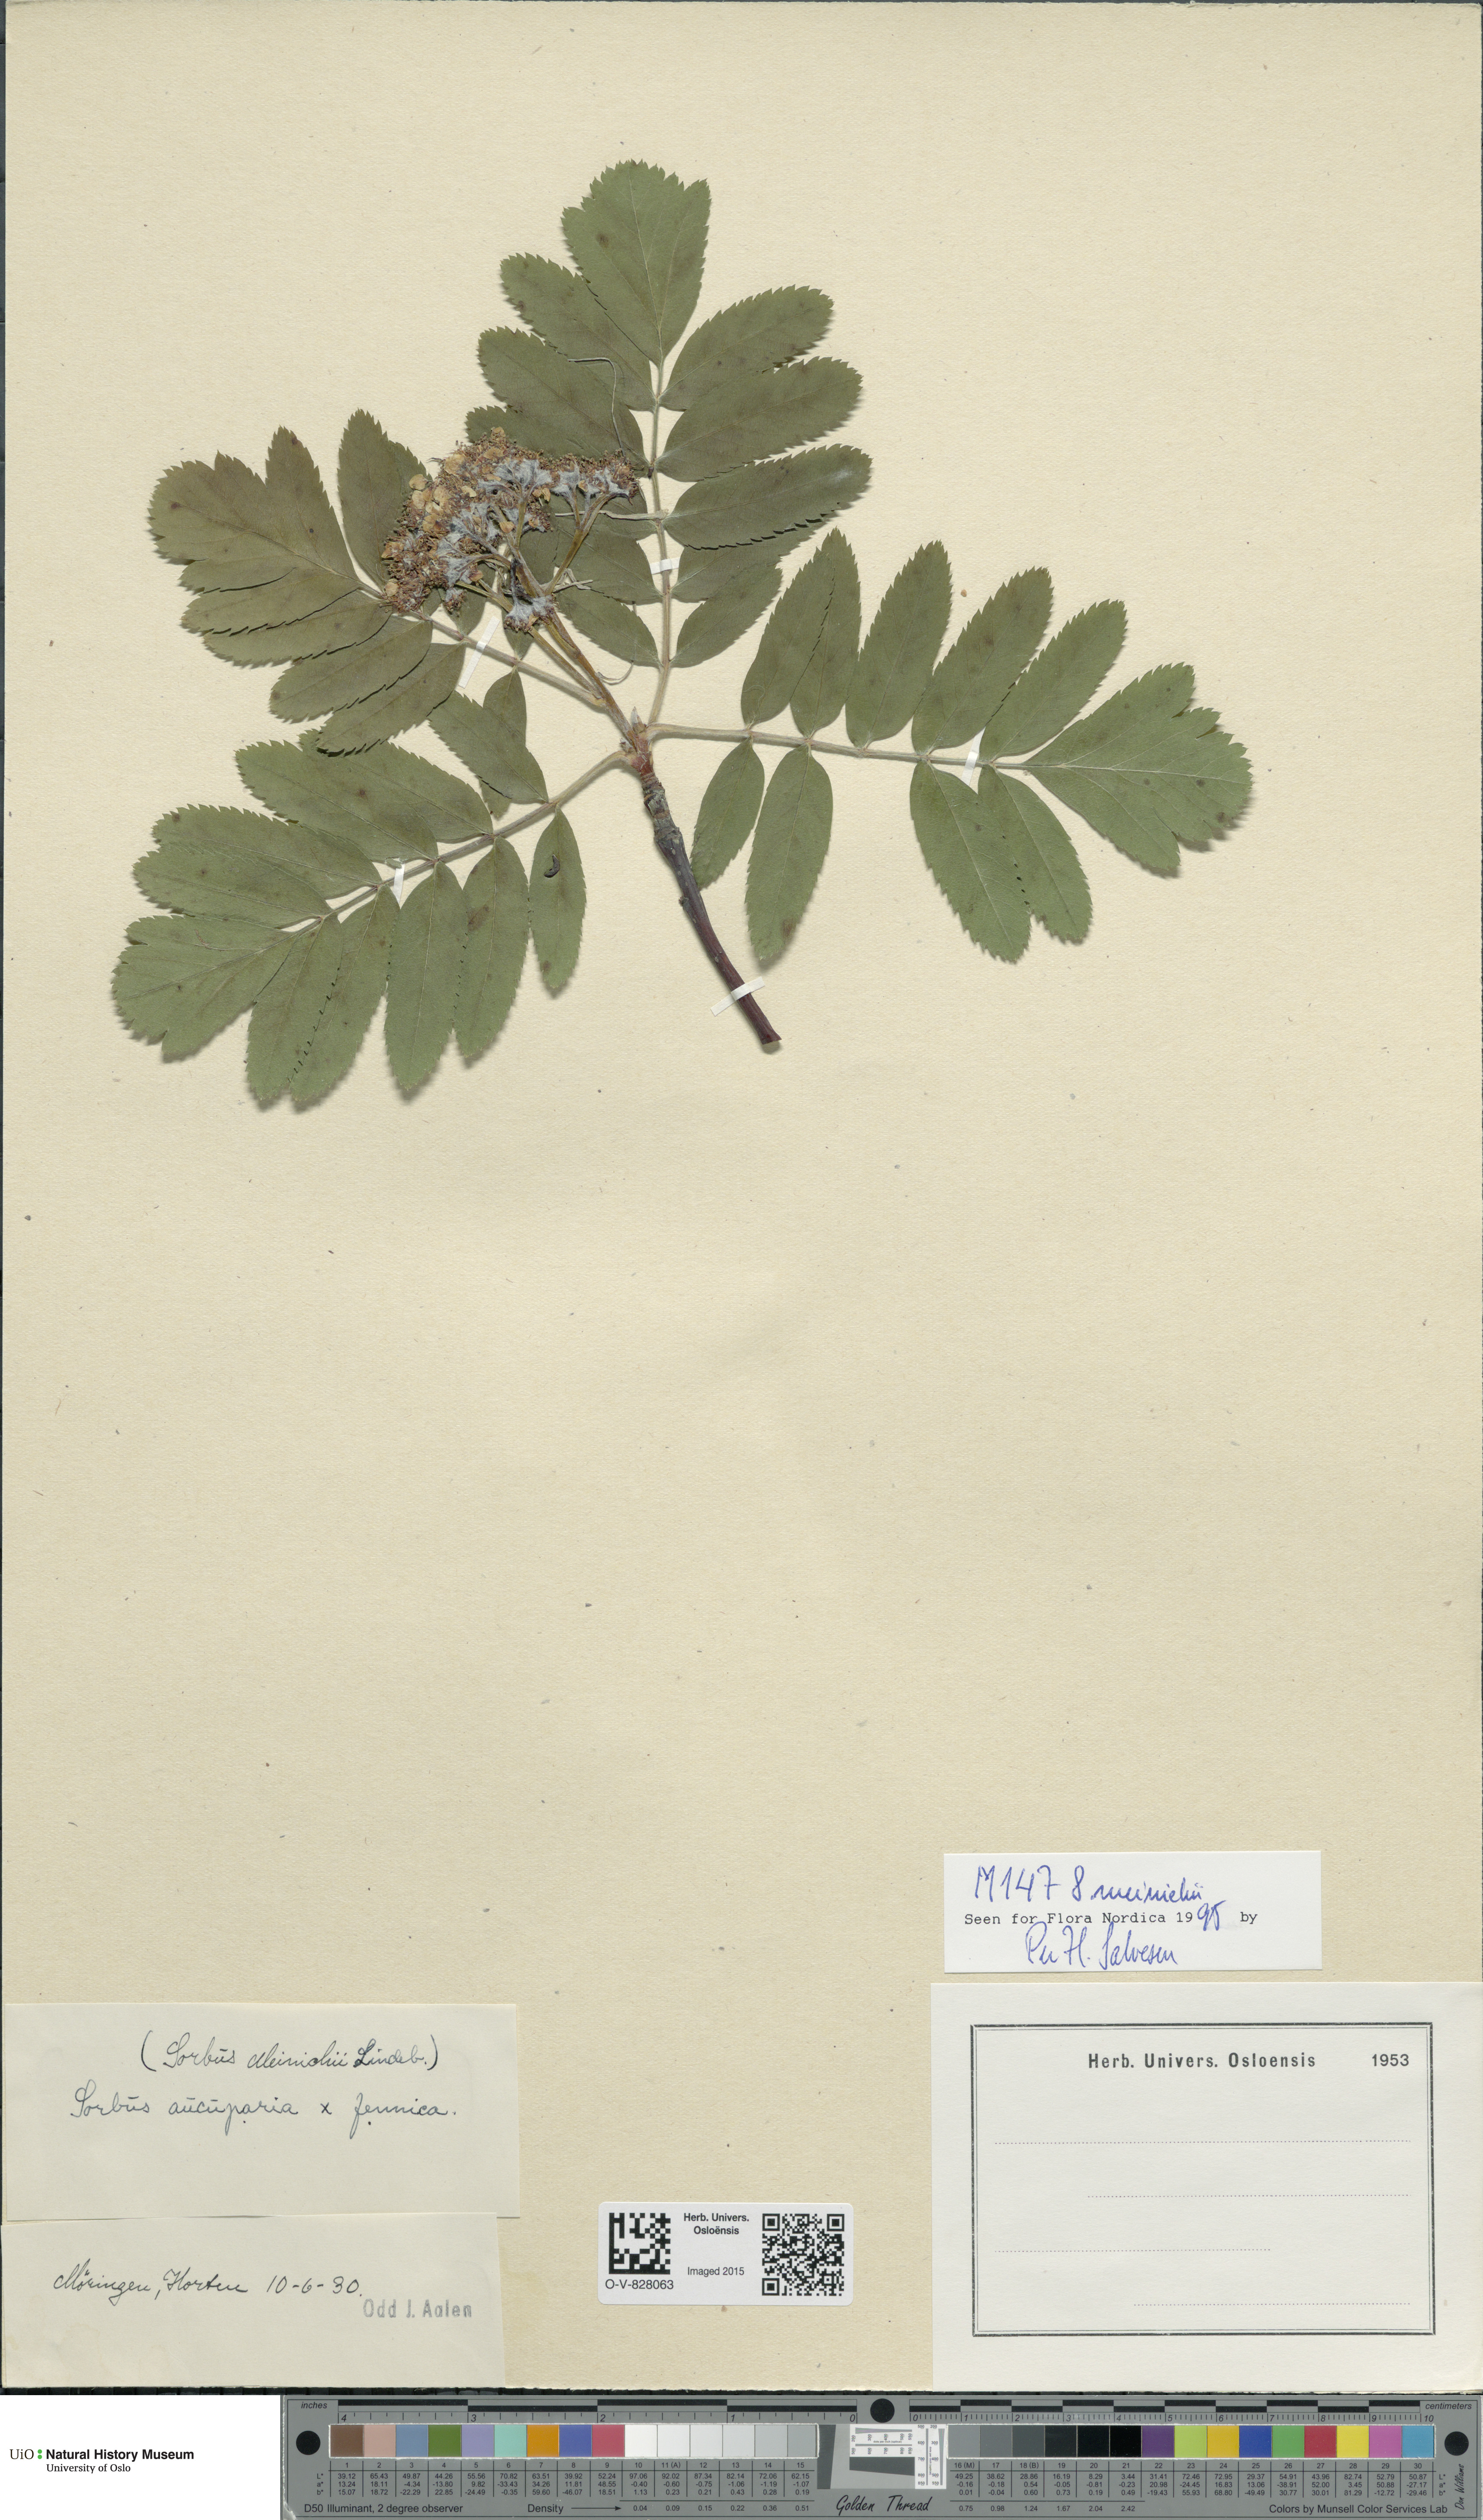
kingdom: Plantae
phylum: Tracheophyta
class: Magnoliopsida
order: Rosales
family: Rosaceae
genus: Hedlundia
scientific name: Hedlundia meinichii
